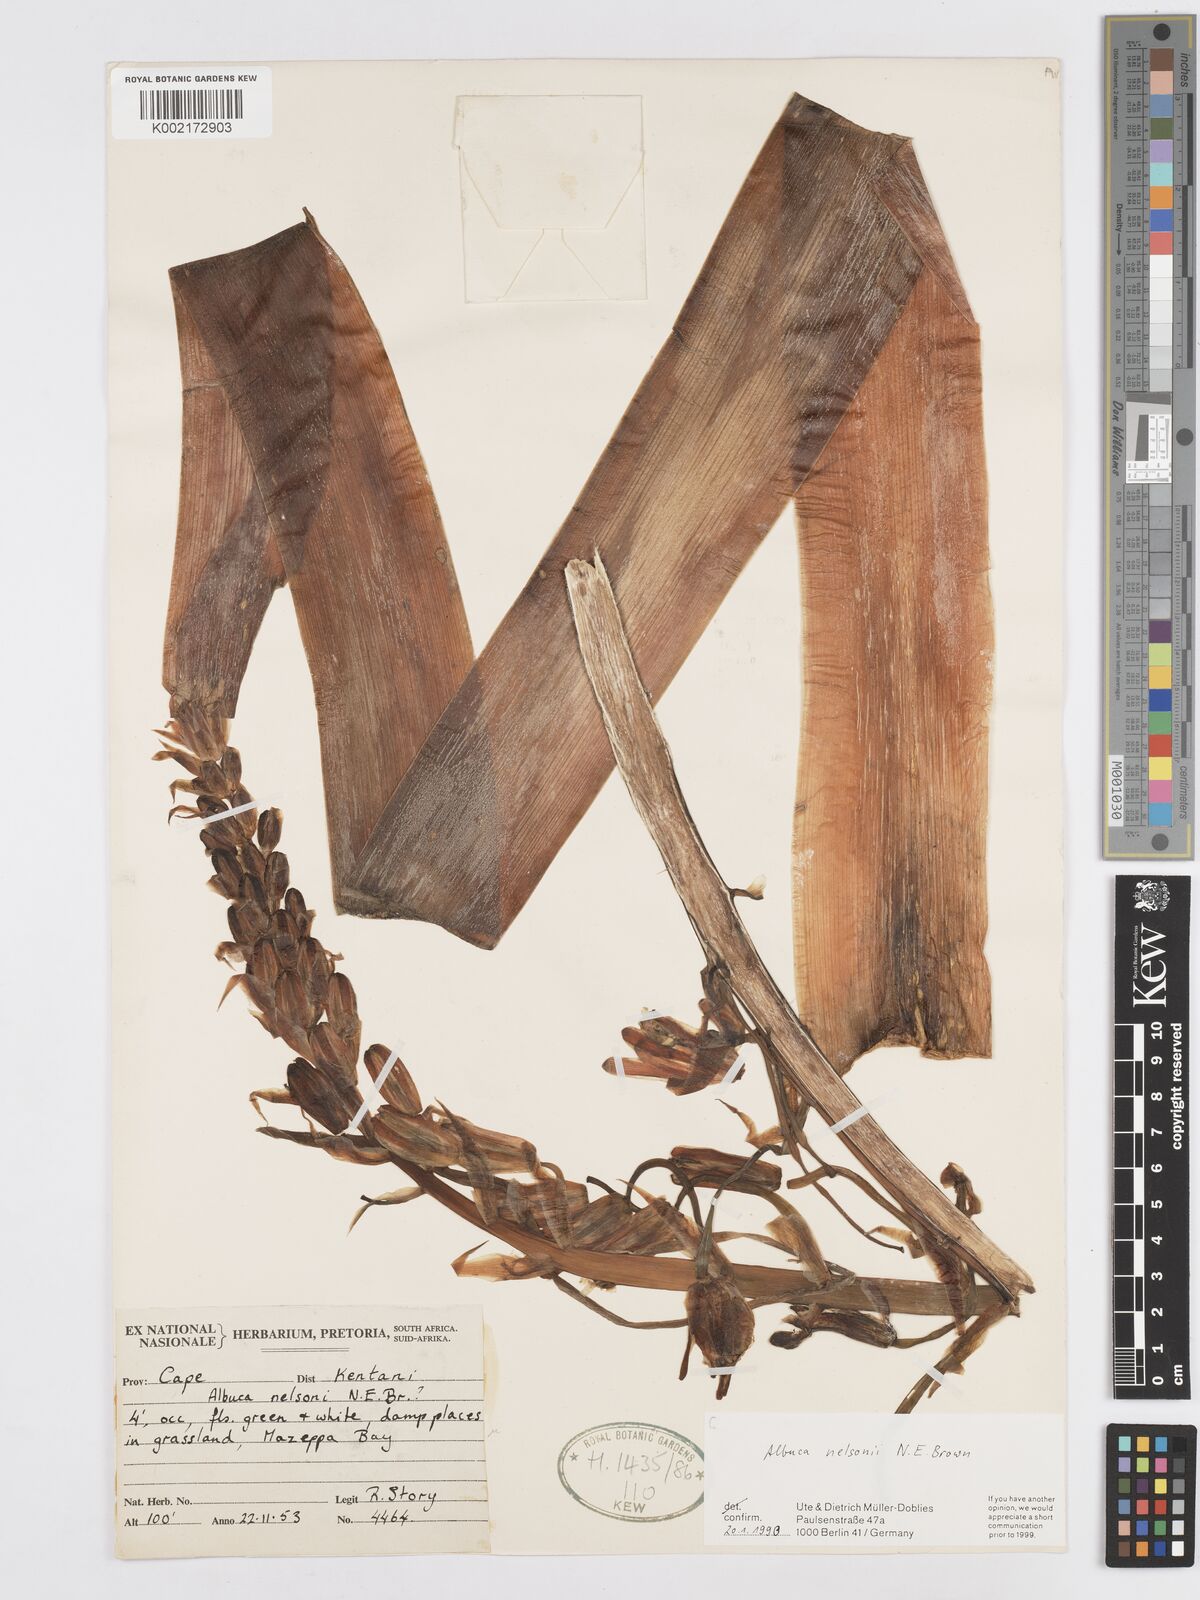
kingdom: Plantae
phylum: Tracheophyta
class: Liliopsida
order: Asparagales
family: Asparagaceae
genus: Albuca
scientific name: Albuca nelsonii
